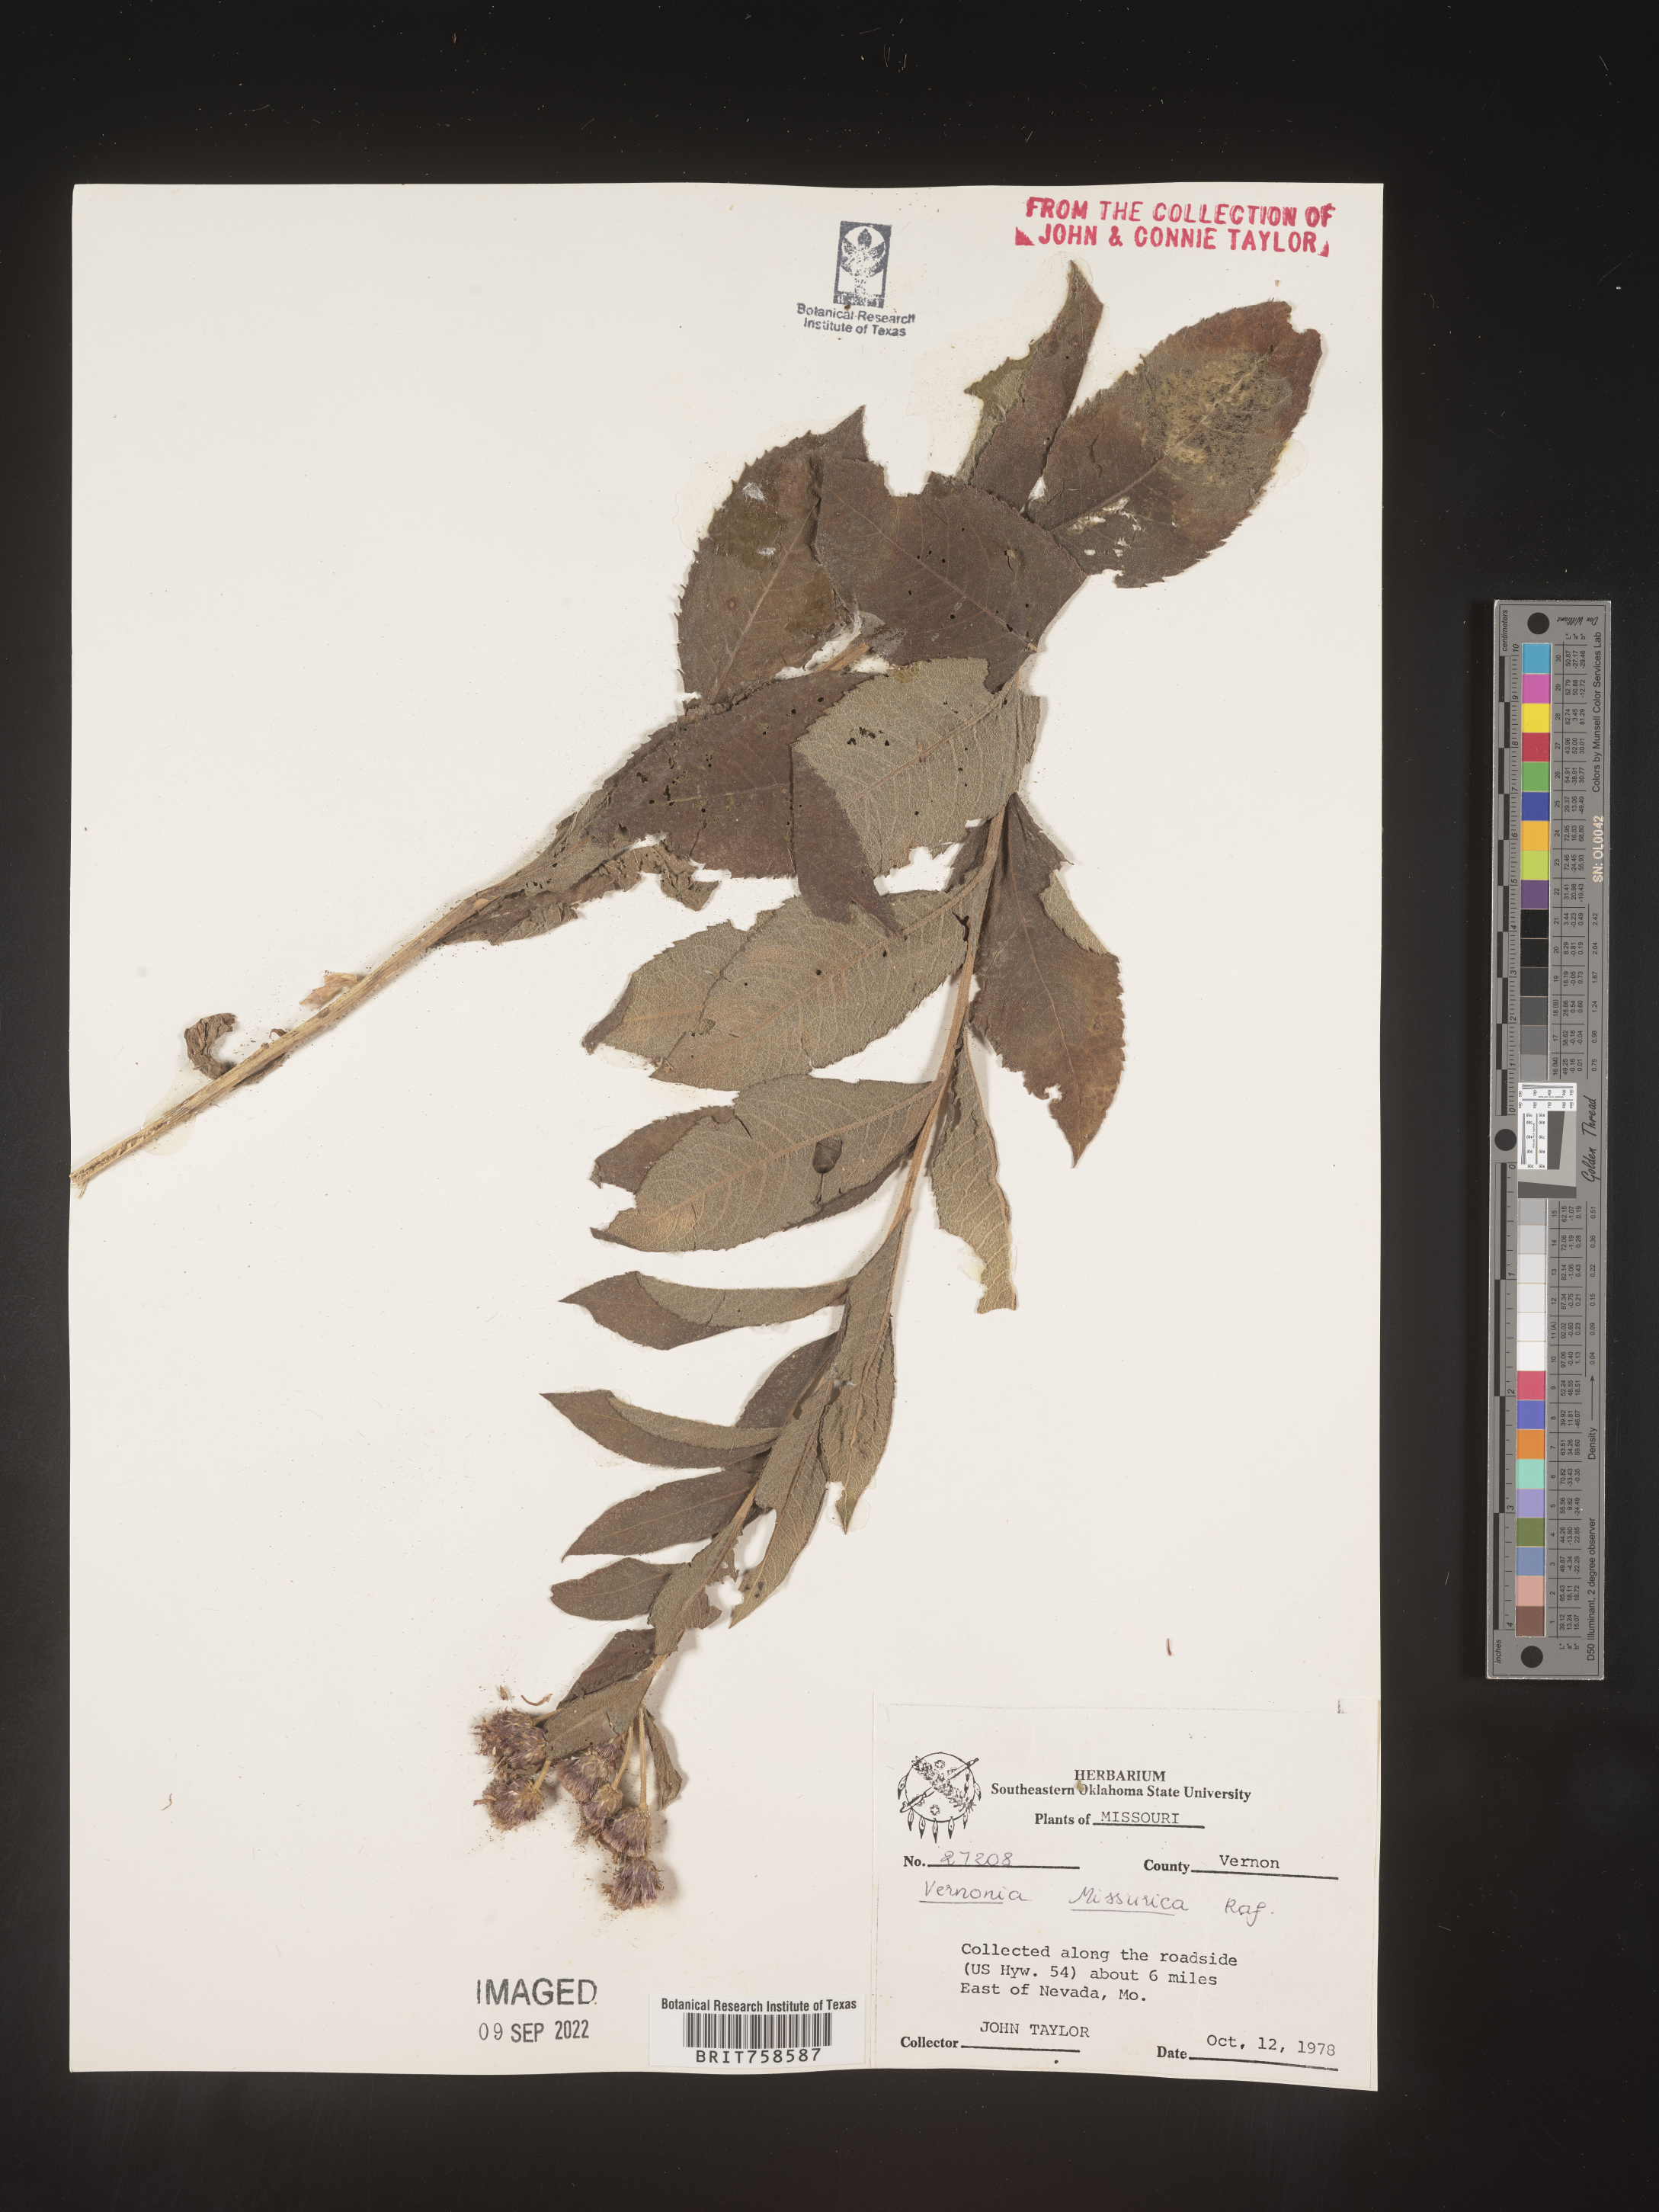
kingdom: Plantae
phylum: Tracheophyta
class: Magnoliopsida
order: Asterales
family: Asteraceae
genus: Vernonia
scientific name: Vernonia missurica
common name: Missouri ironweed
